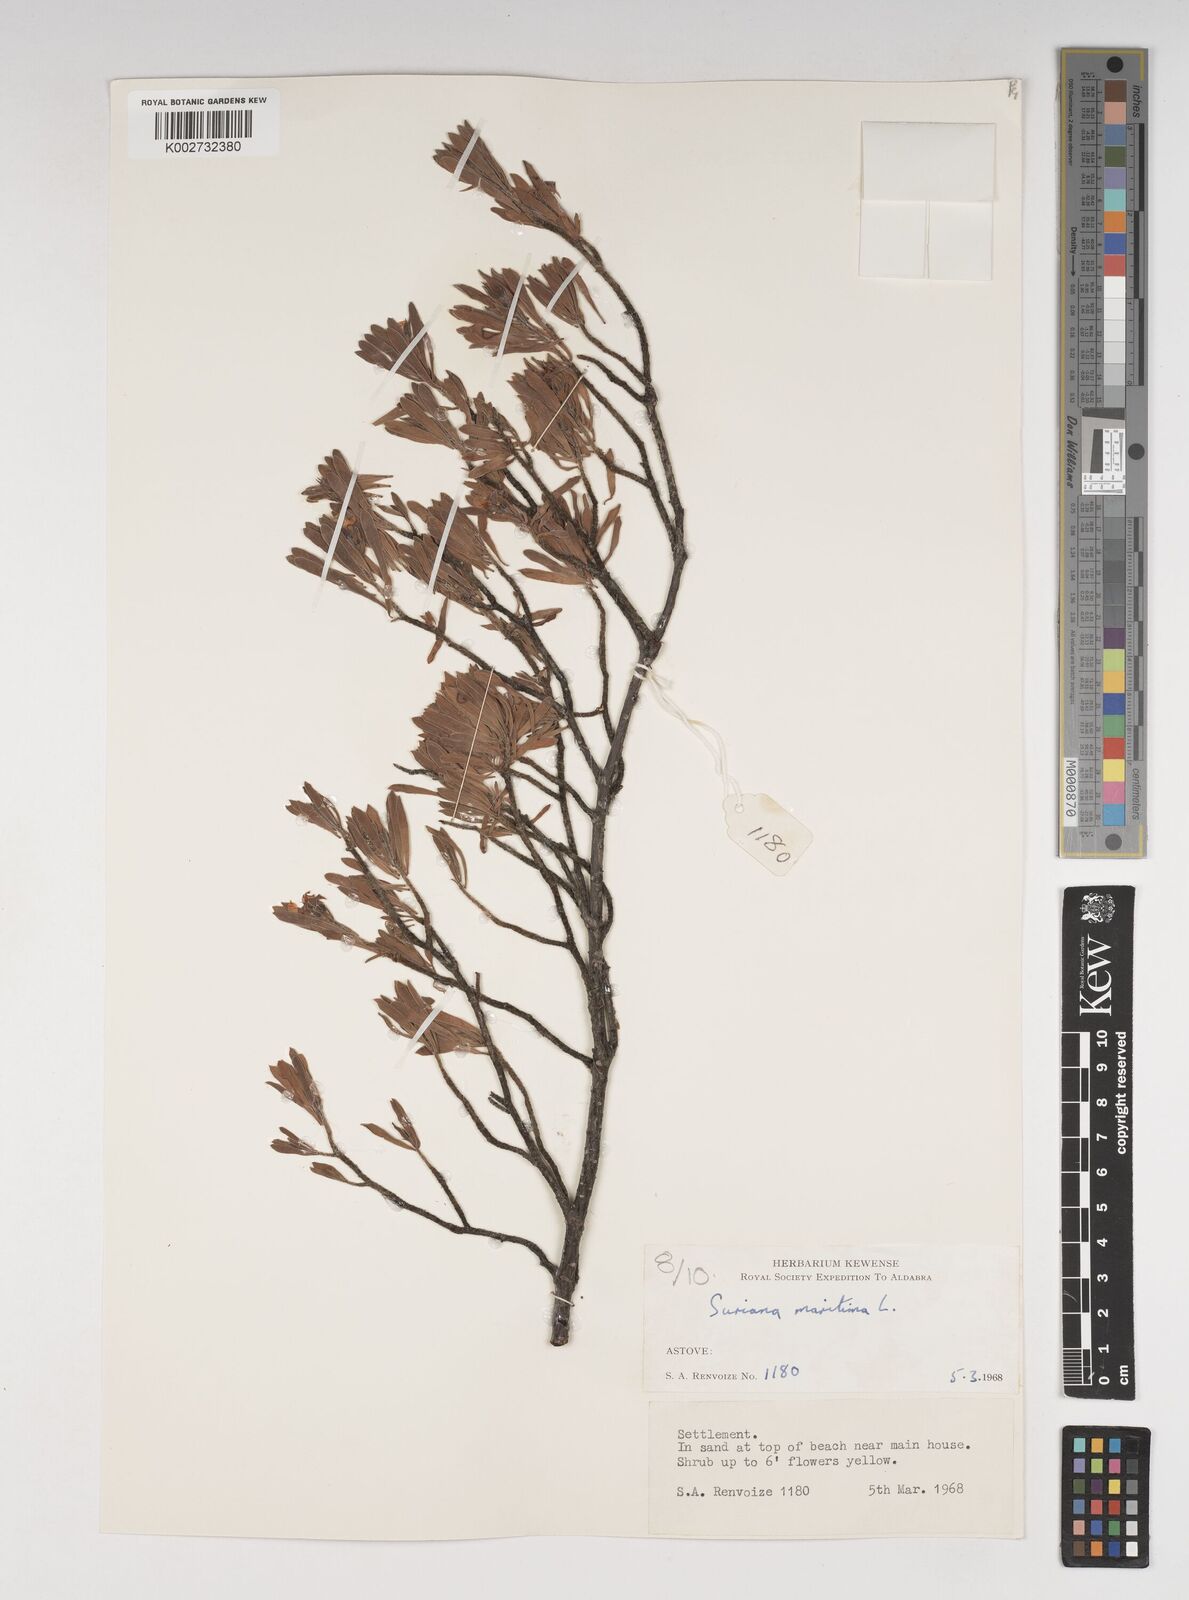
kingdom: Plantae
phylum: Tracheophyta
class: Magnoliopsida
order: Fabales
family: Surianaceae
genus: Suriana
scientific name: Suriana maritima
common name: Bay-cedar
